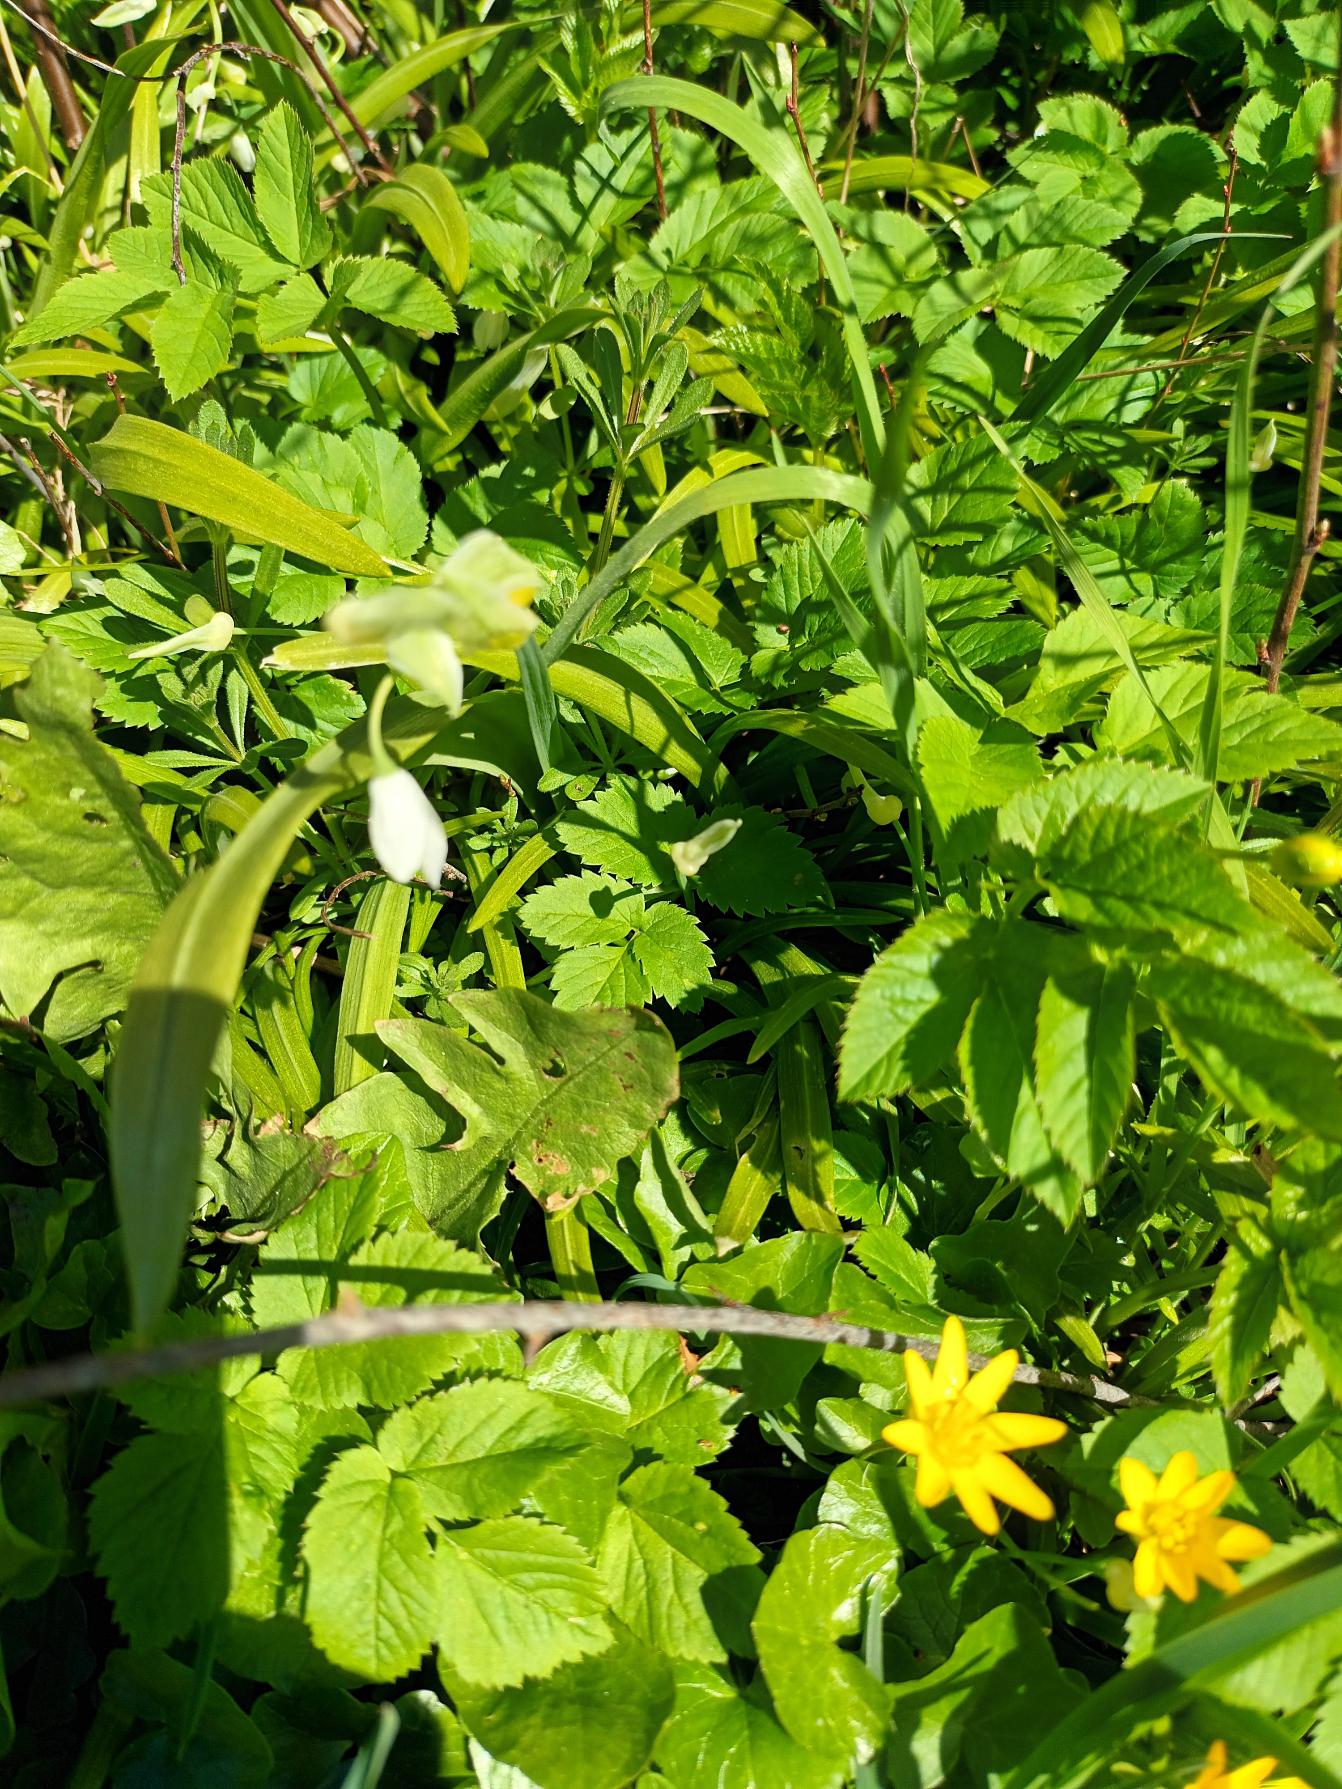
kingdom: Plantae
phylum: Tracheophyta
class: Liliopsida
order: Asparagales
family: Amaryllidaceae
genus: Allium
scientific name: Allium paradoxum
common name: Spøjs løg
